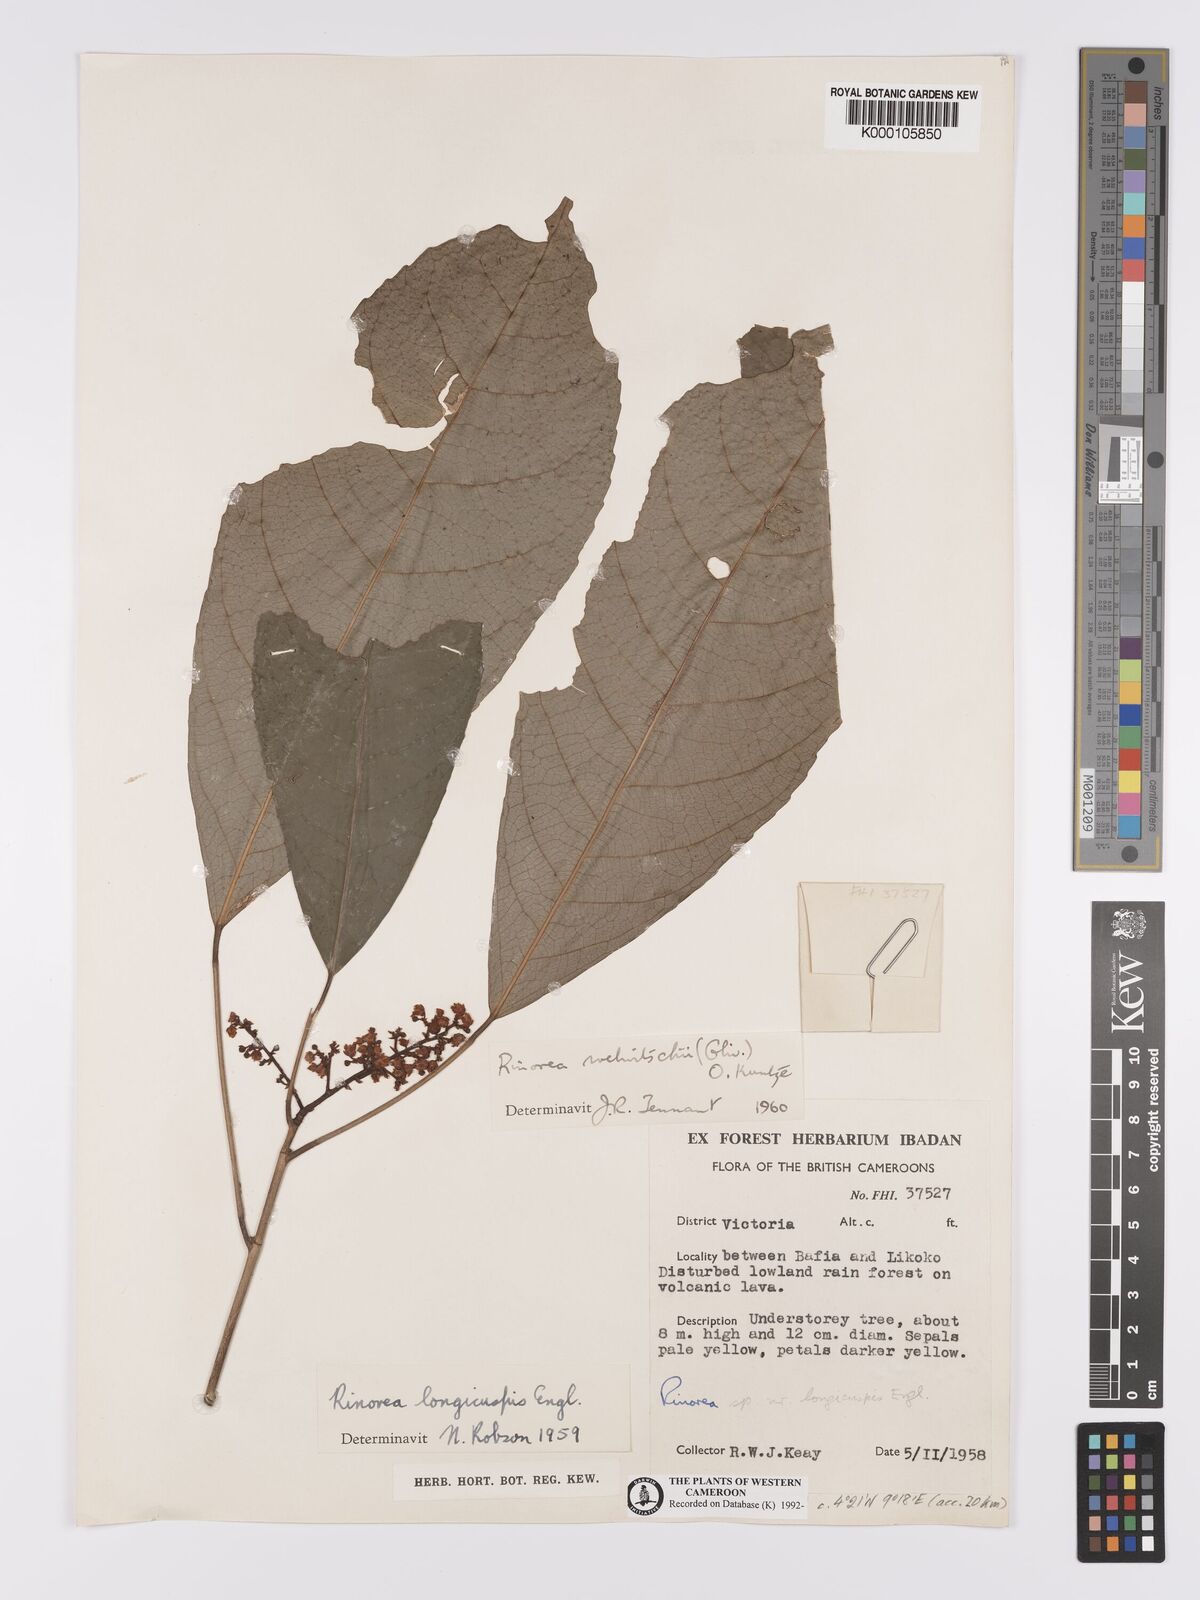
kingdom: Plantae
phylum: Tracheophyta
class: Magnoliopsida
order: Malpighiales
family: Violaceae
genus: Rinorea
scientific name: Rinorea welwitschii
